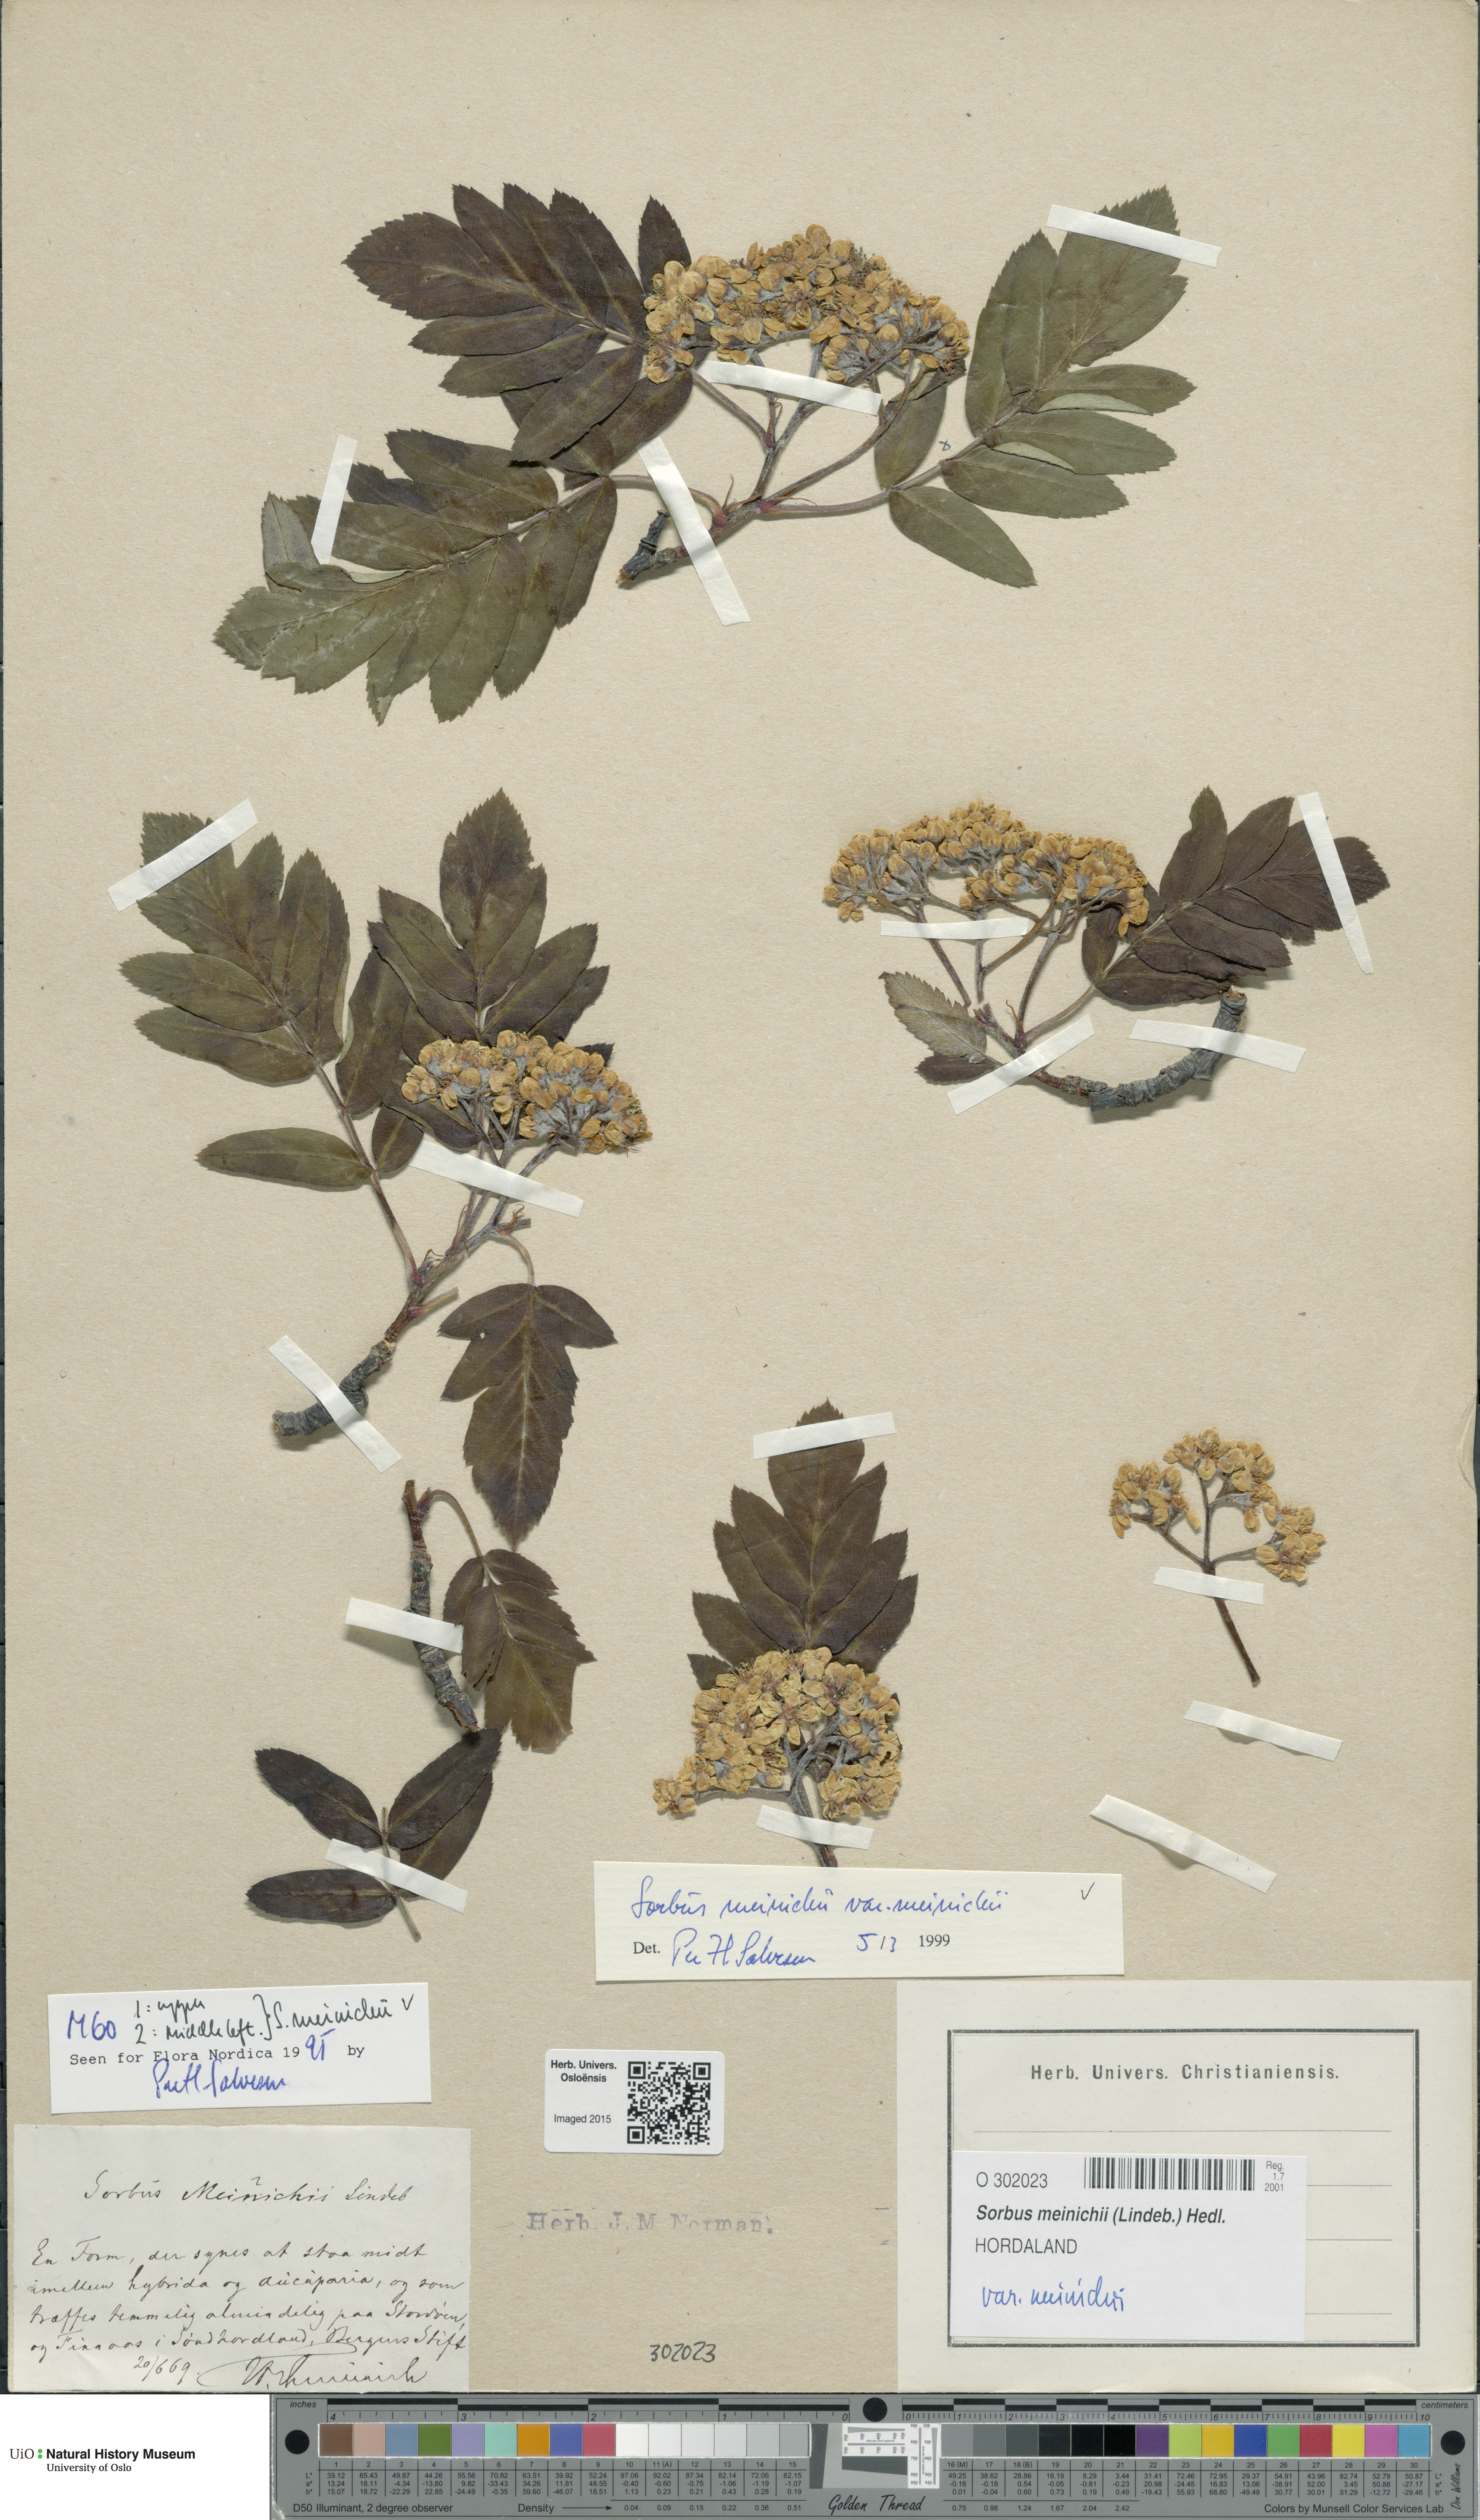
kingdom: Plantae
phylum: Tracheophyta
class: Magnoliopsida
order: Rosales
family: Rosaceae
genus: Hedlundia
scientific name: Hedlundia meinichii
